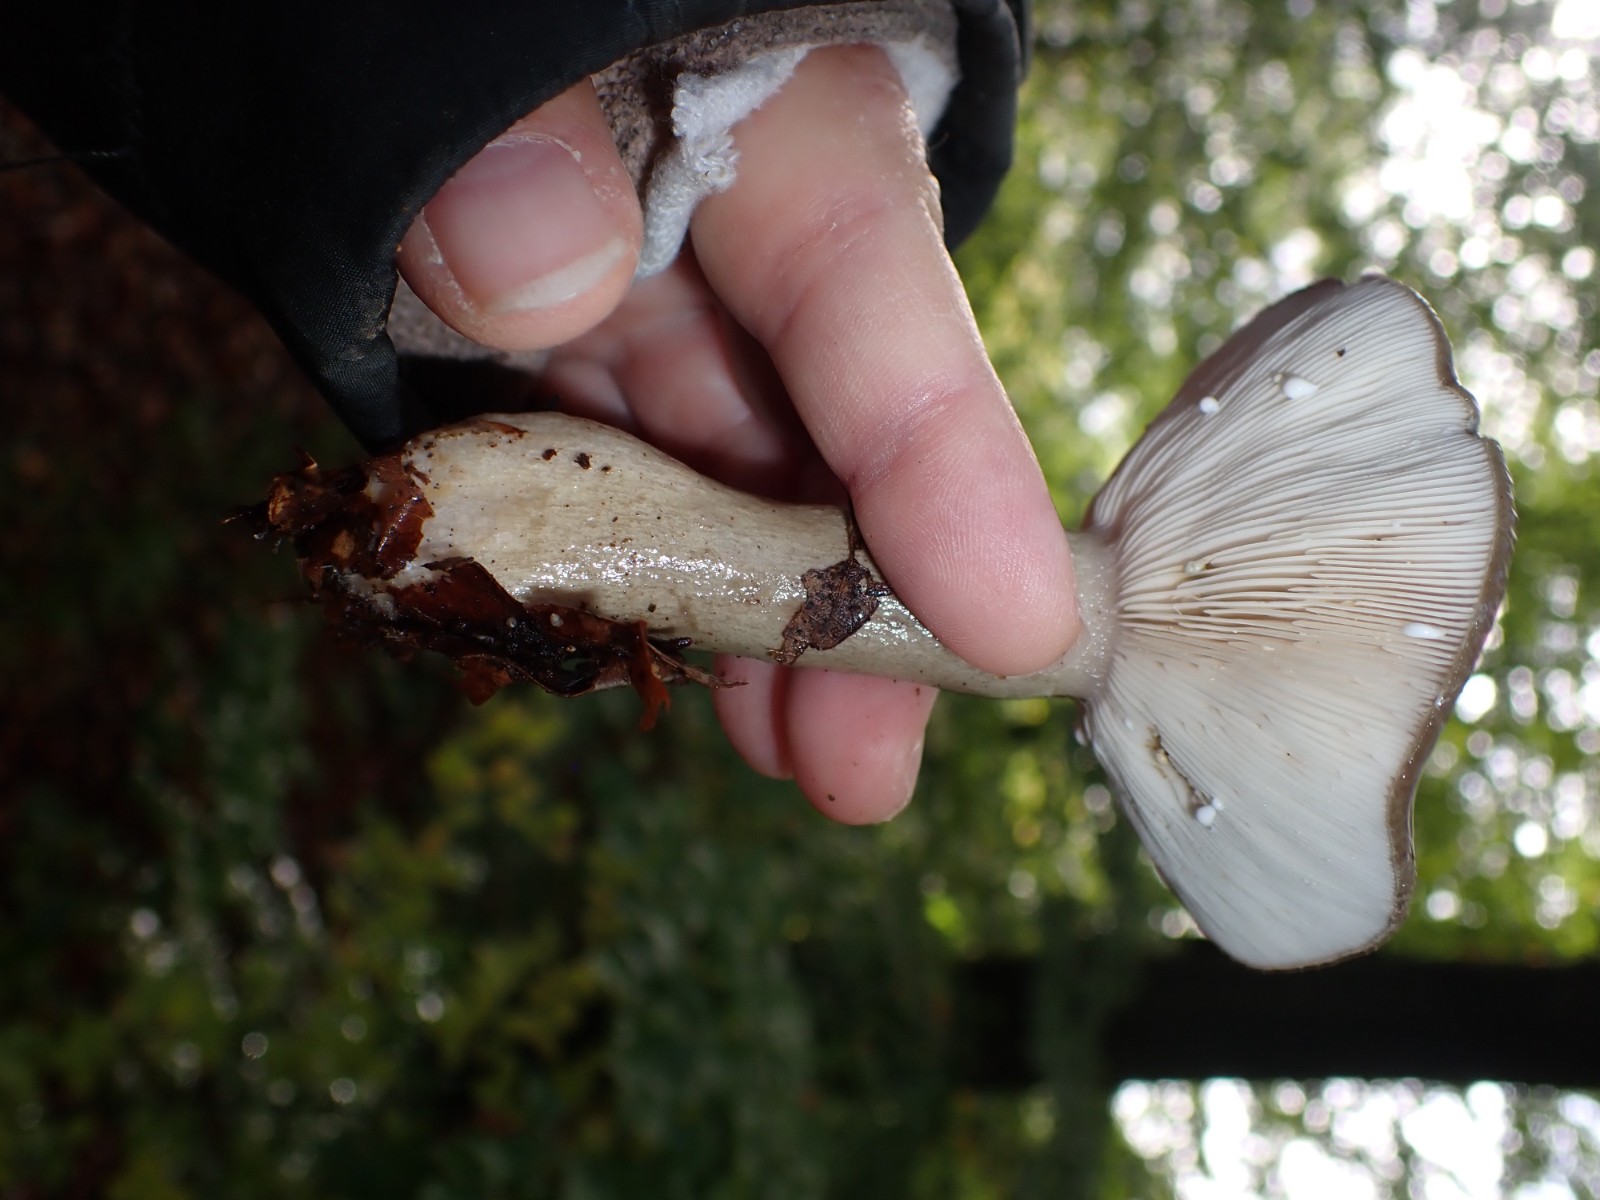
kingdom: Fungi
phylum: Basidiomycota
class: Agaricomycetes
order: Russulales
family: Russulaceae
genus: Lactarius
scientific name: Lactarius blennius
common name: dråbeplettet mælkehat
